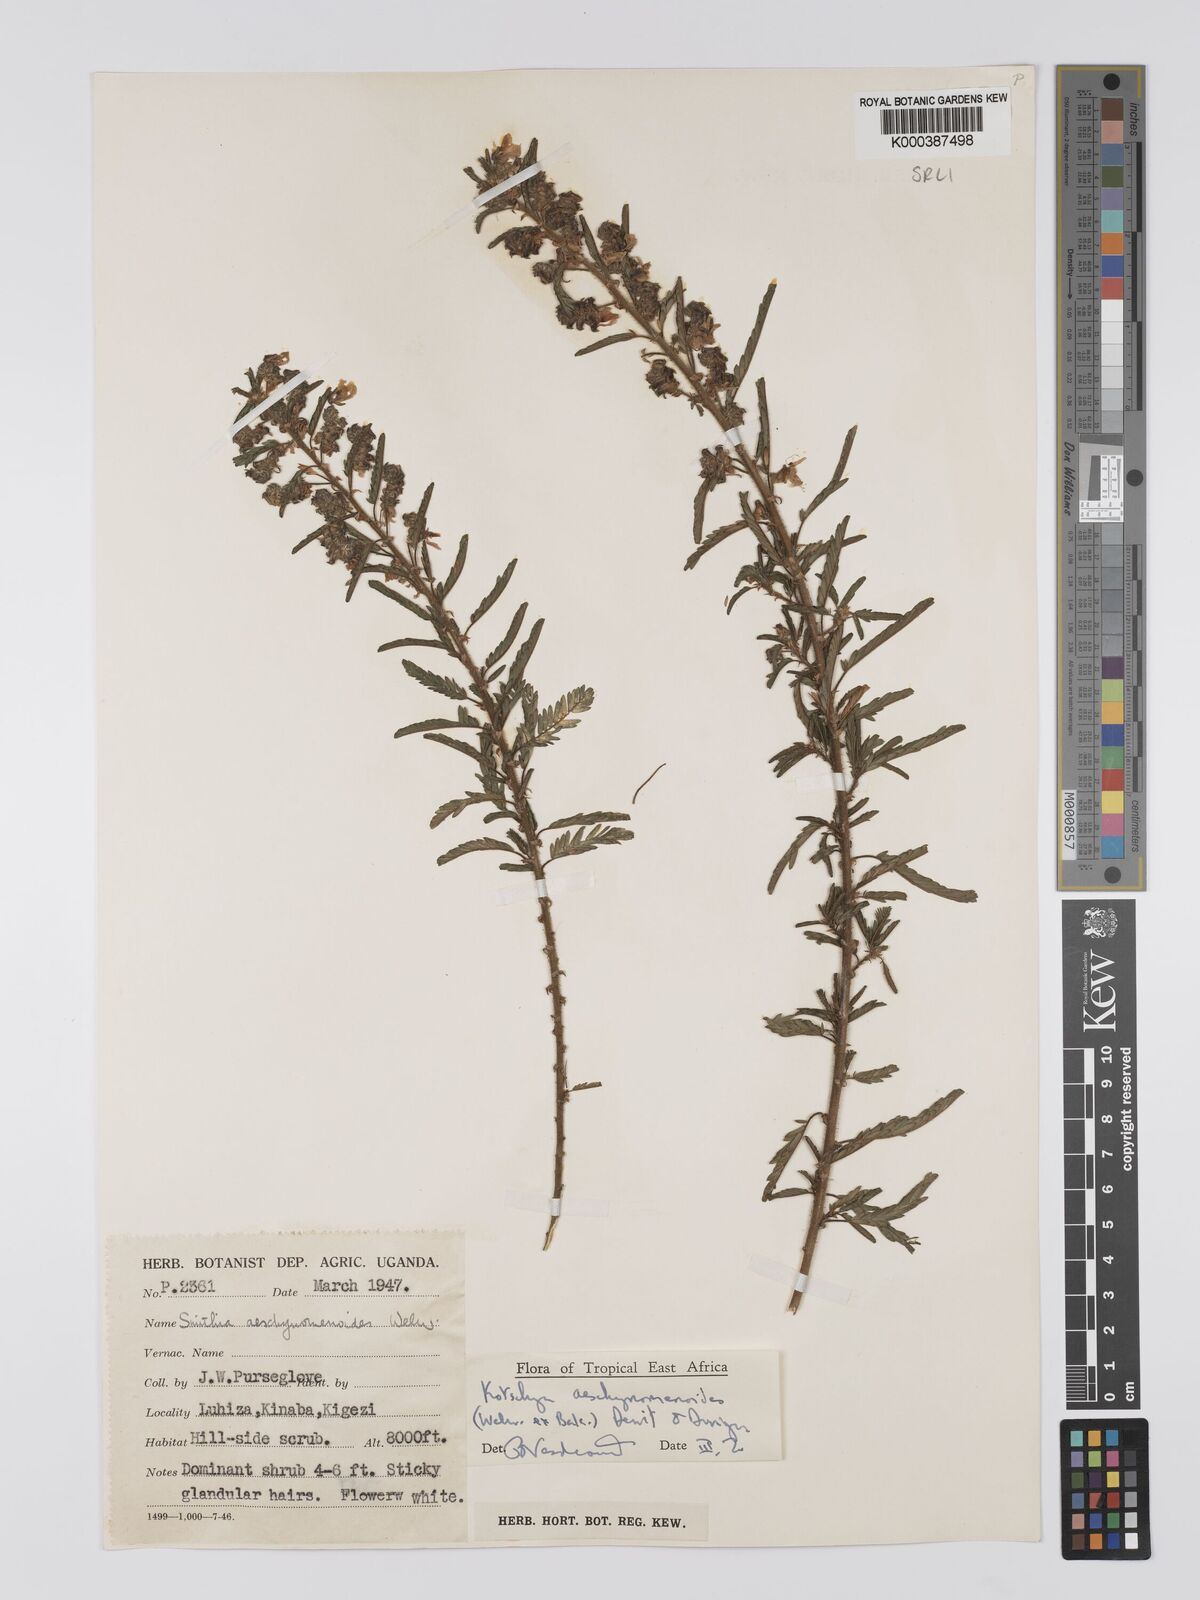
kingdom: Plantae
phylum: Tracheophyta
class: Magnoliopsida
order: Fabales
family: Fabaceae
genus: Kotschya
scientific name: Kotschya aeschynomenoides
